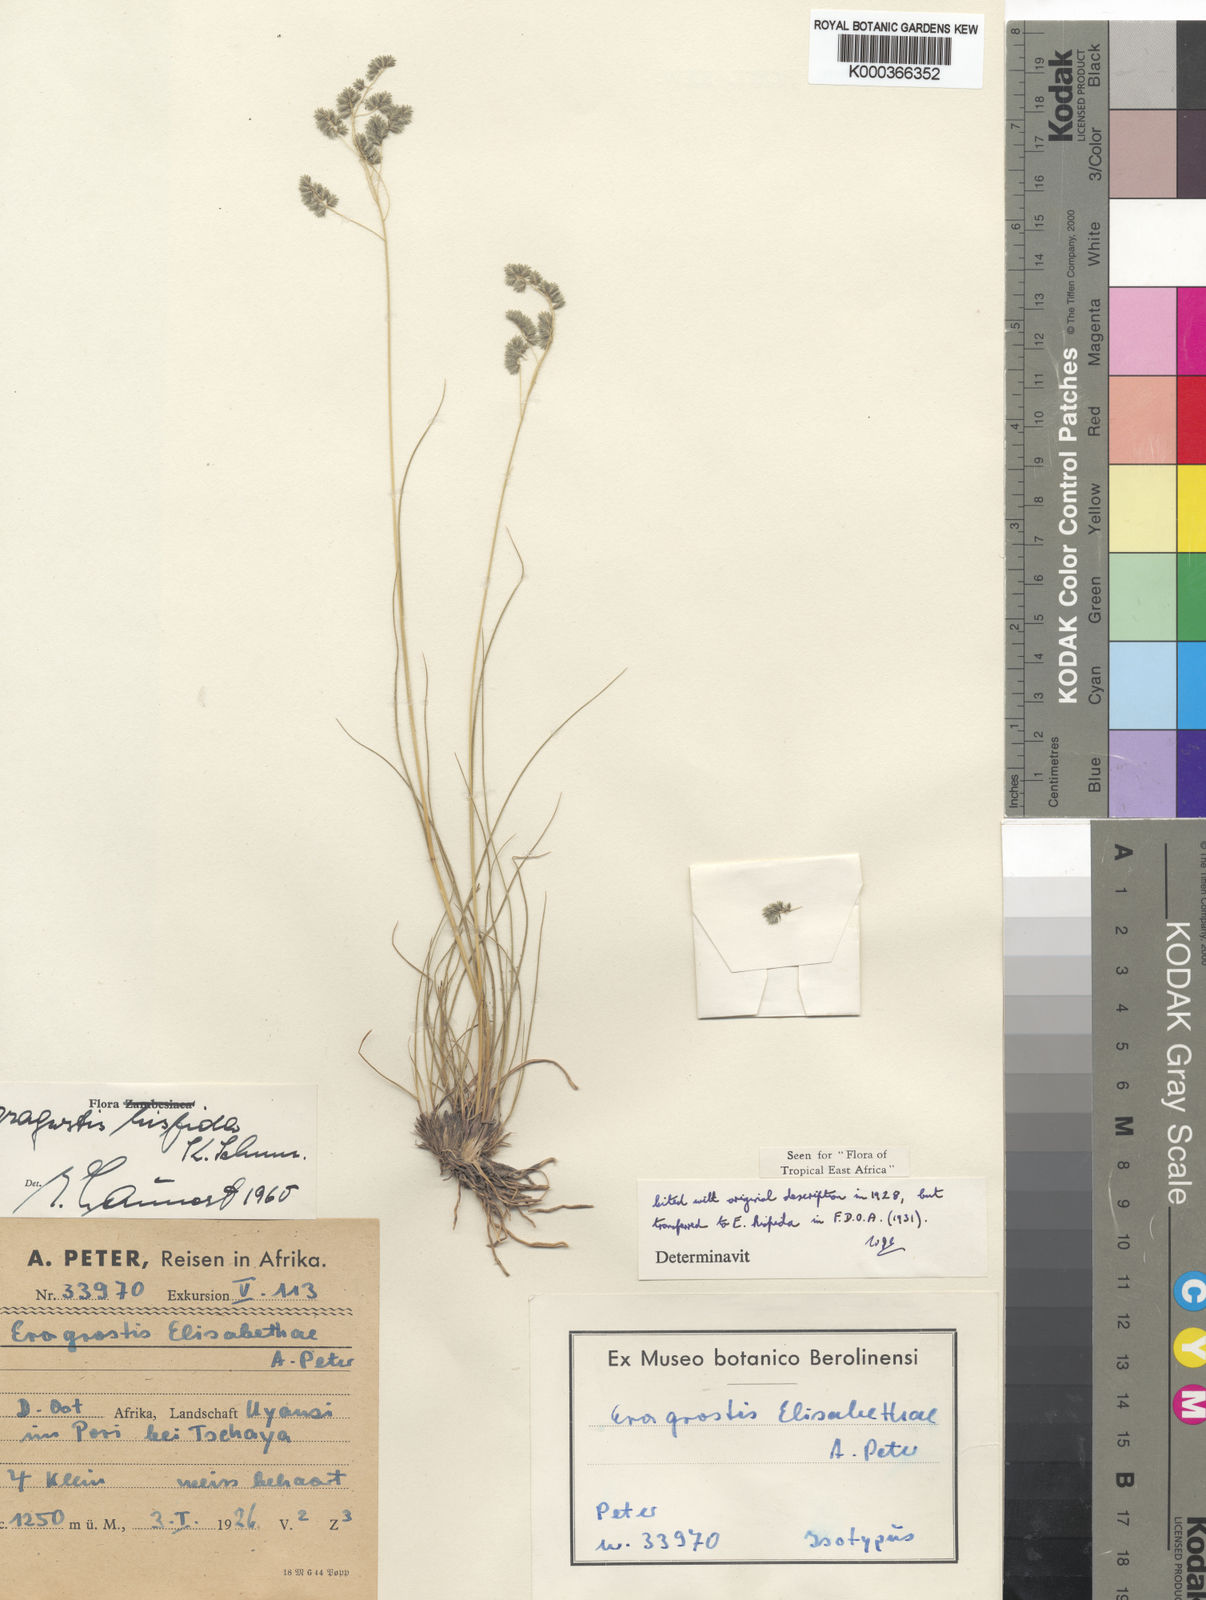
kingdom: Plantae
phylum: Tracheophyta
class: Liliopsida
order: Poales
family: Poaceae
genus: Eragrostis
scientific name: Eragrostis hispida
